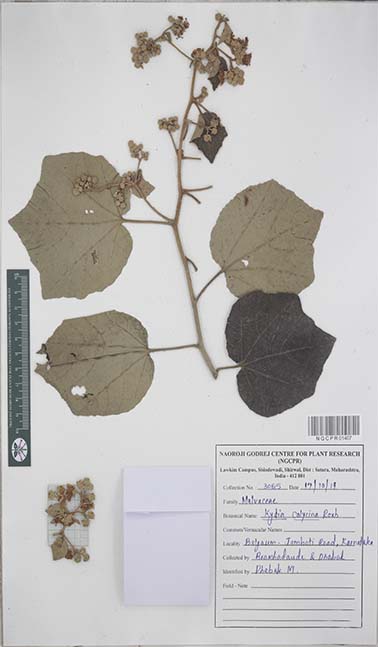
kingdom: Plantae
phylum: Tracheophyta
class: Magnoliopsida
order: Malvales
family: Malvaceae
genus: Kydia
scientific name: Kydia calycina
